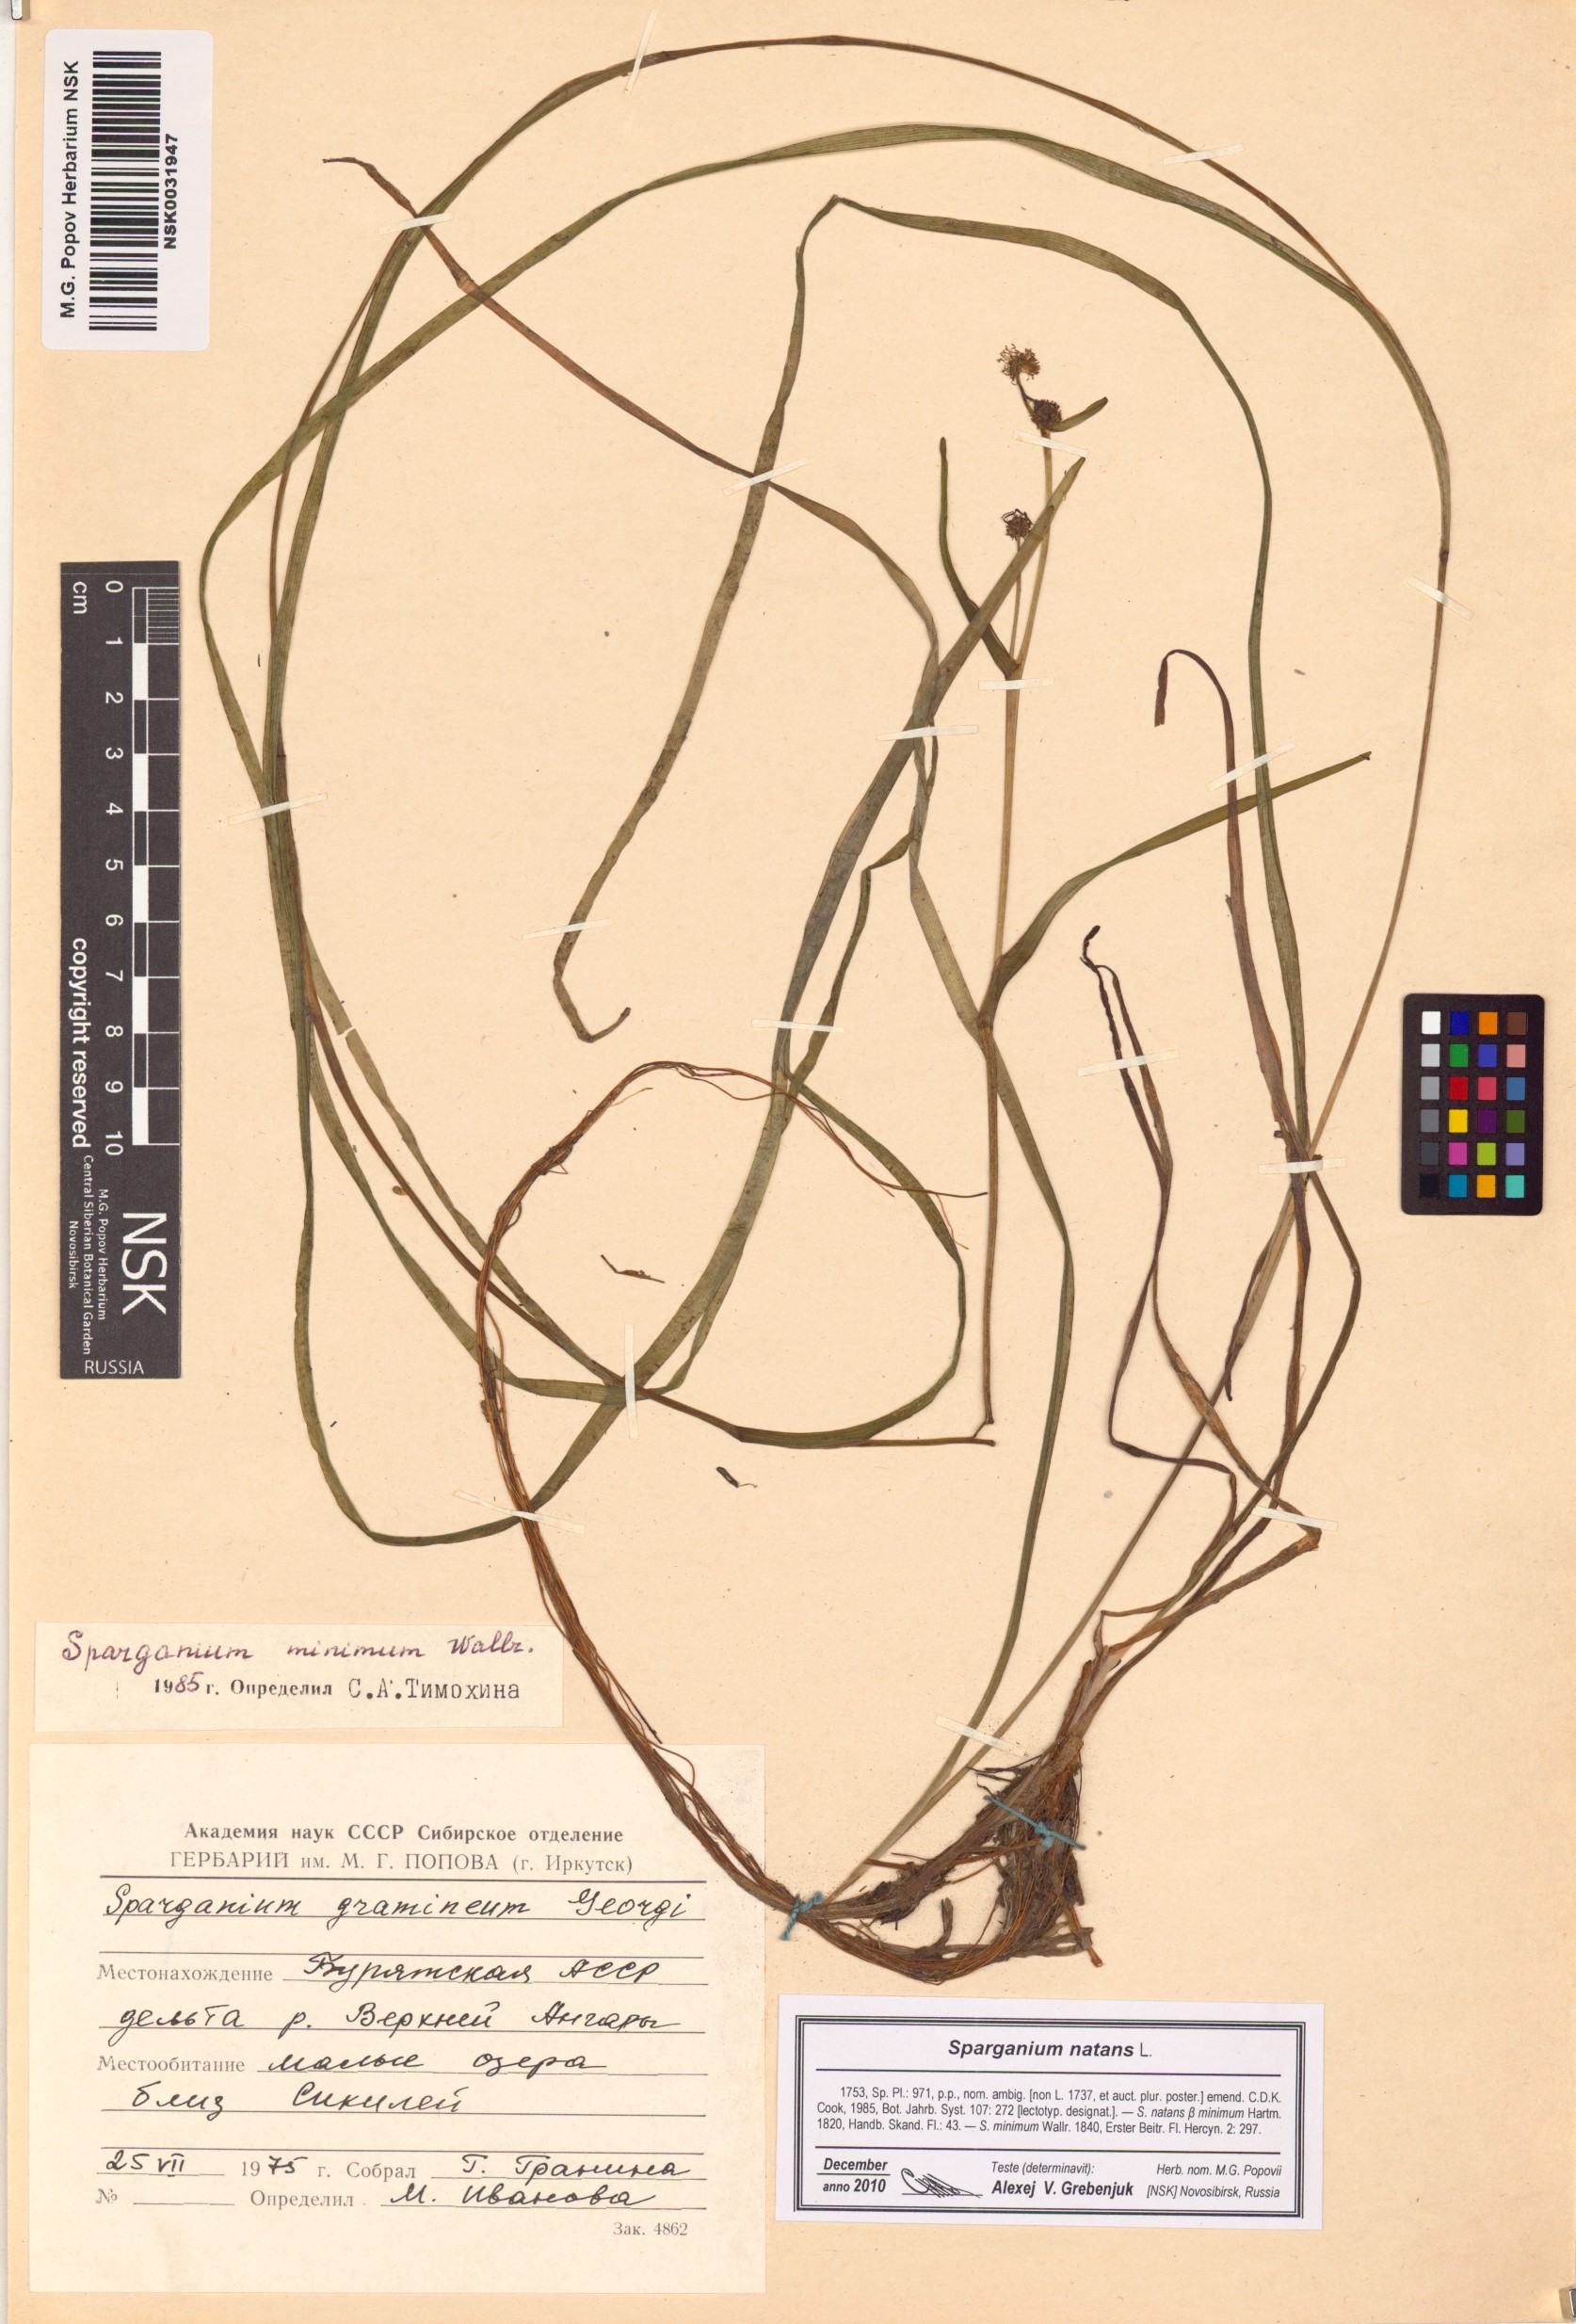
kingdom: Plantae
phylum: Tracheophyta
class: Liliopsida
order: Poales
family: Typhaceae
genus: Sparganium
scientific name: Sparganium natans
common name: Least bur-reed
